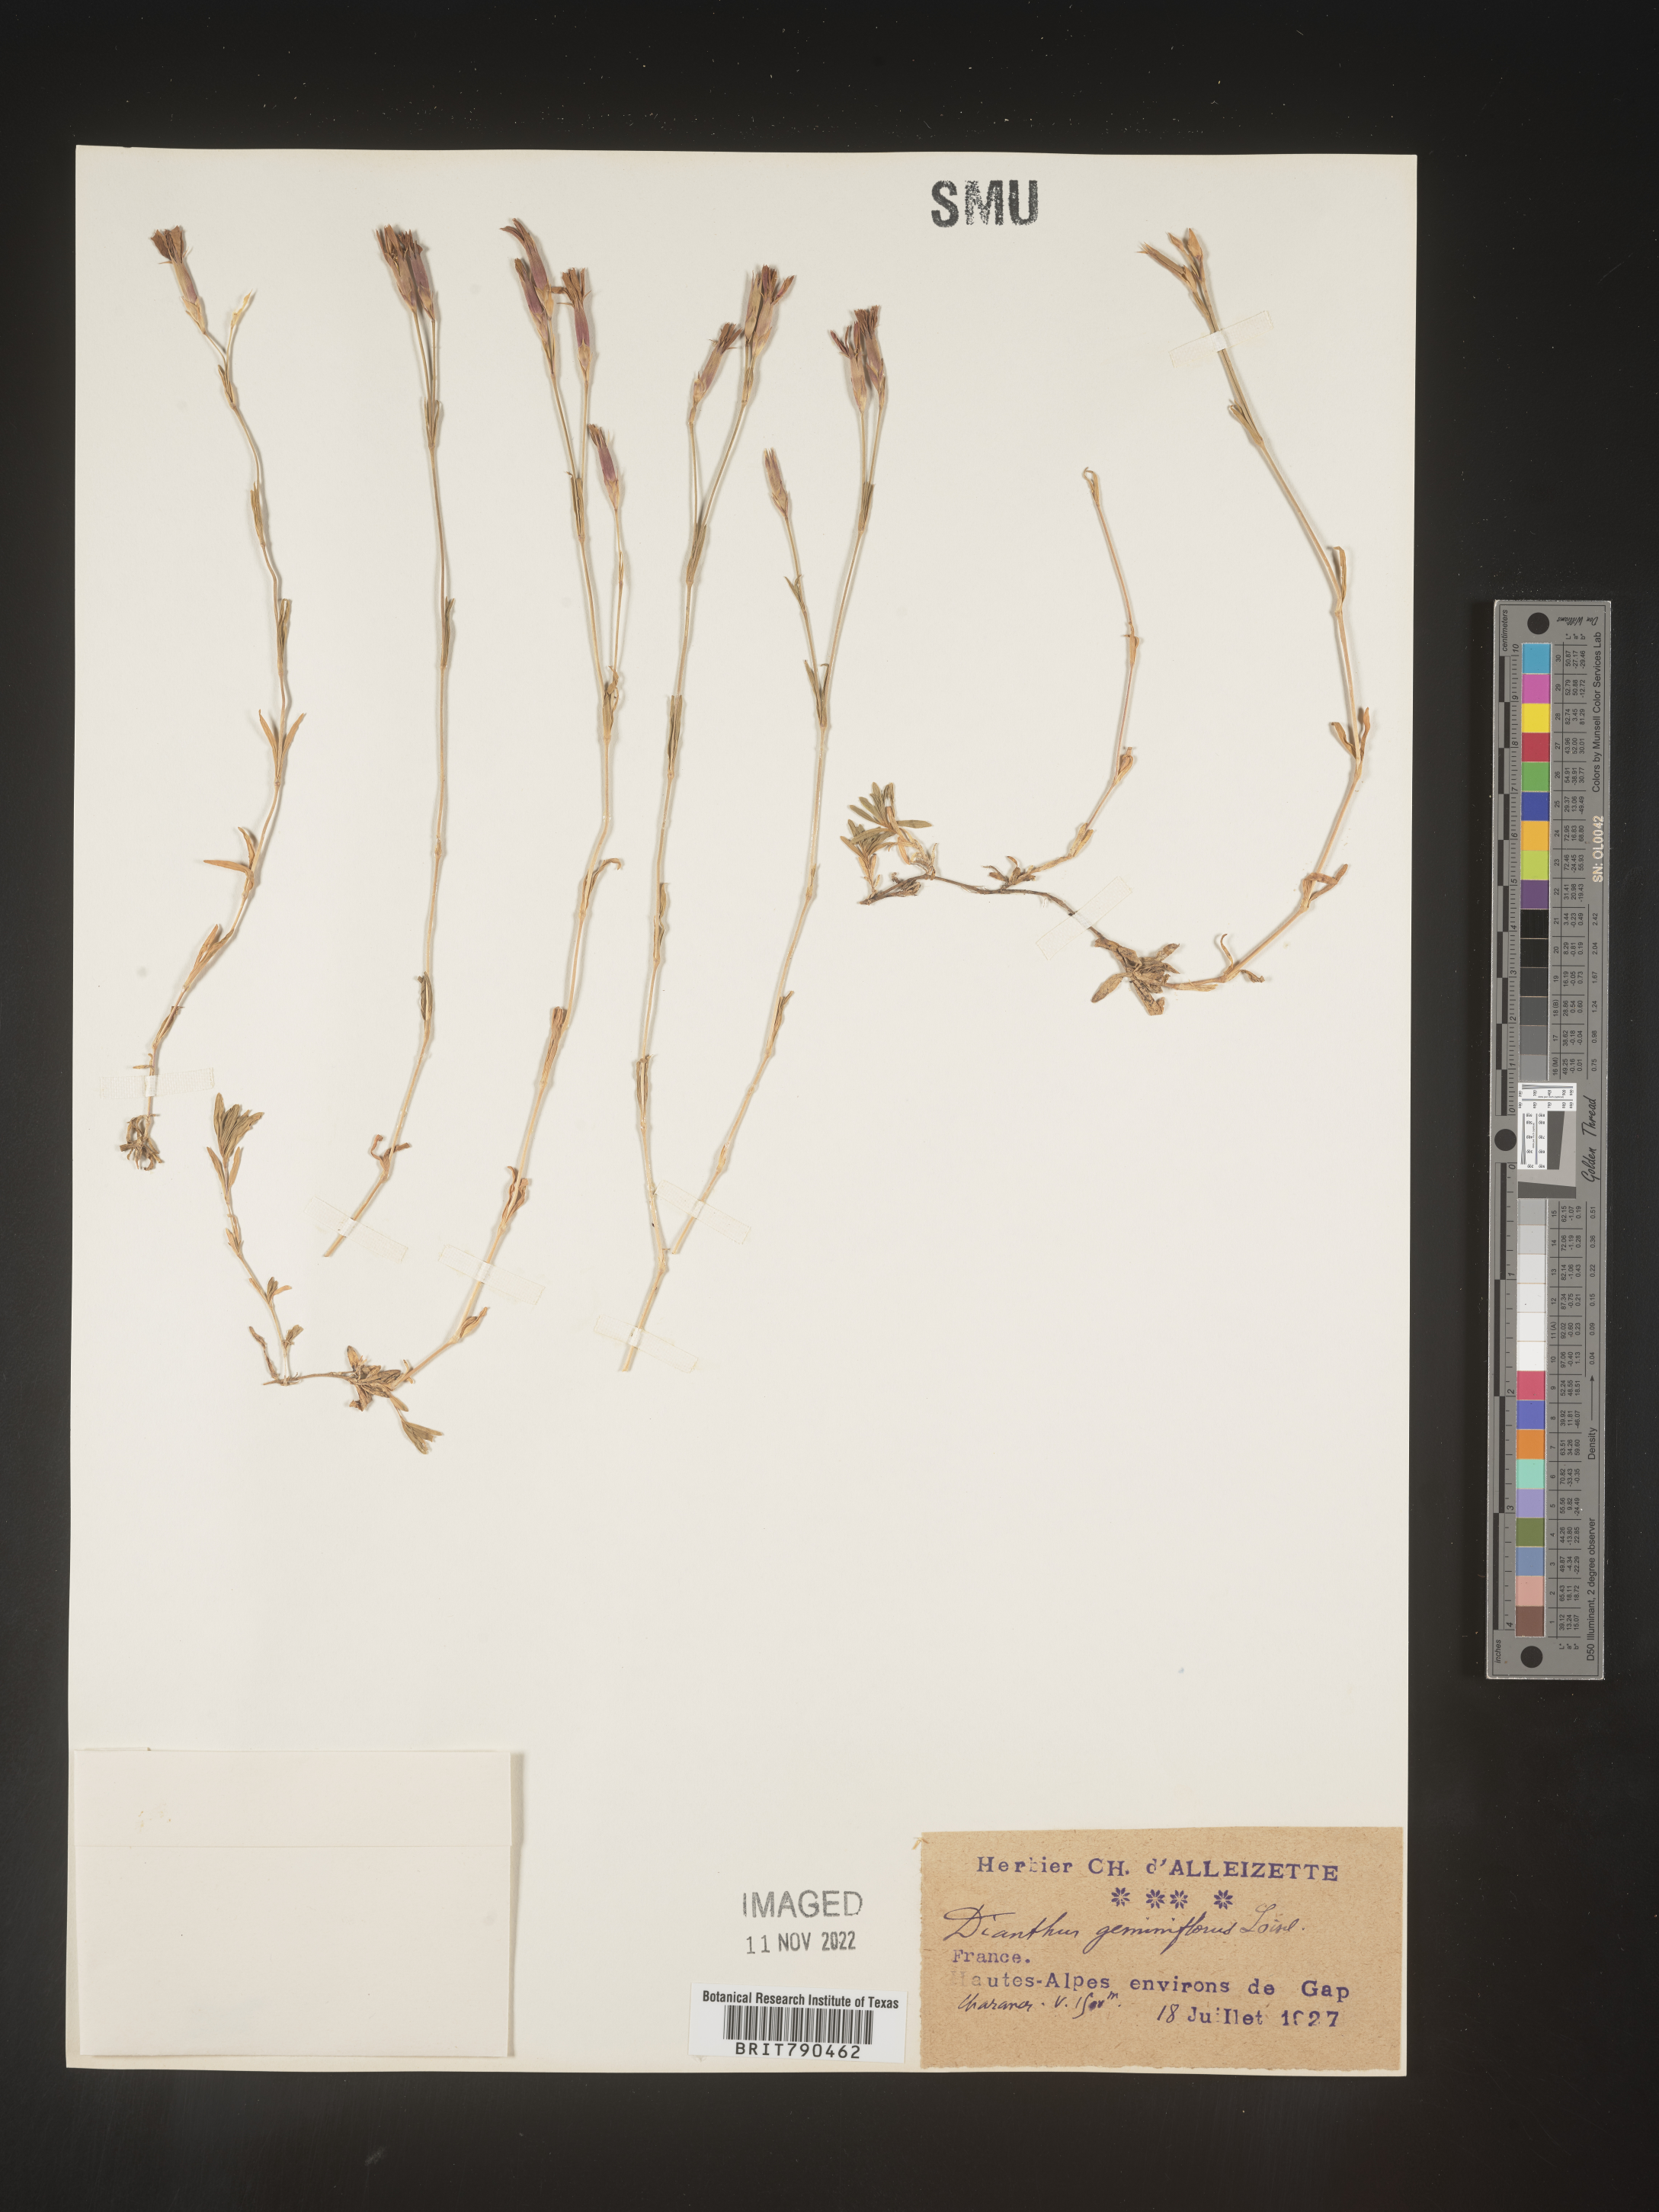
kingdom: Plantae
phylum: Tracheophyta
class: Magnoliopsida
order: Caryophyllales
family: Caryophyllaceae
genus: Dianthus
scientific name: Dianthus
